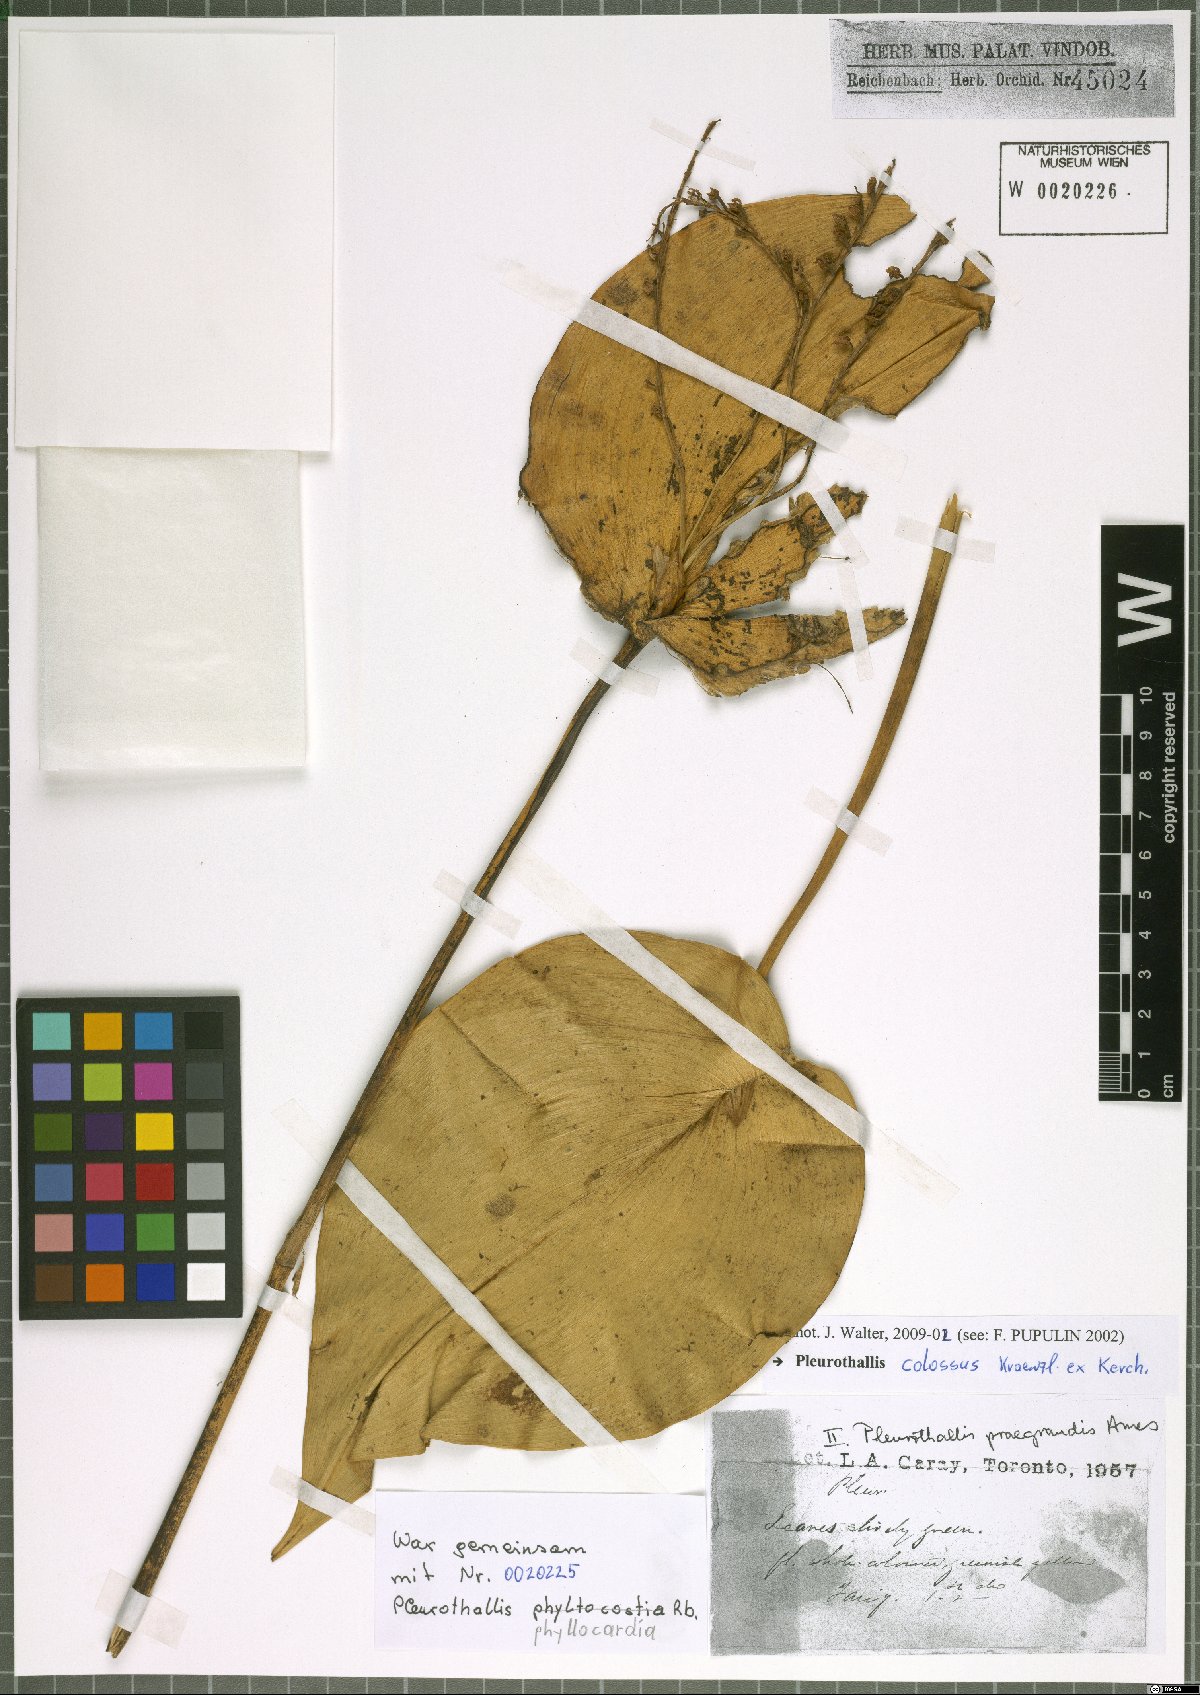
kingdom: Plantae
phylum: Tracheophyta
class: Liliopsida
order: Asparagales
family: Orchidaceae
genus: Pleurothallis
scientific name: Pleurothallis colossus
